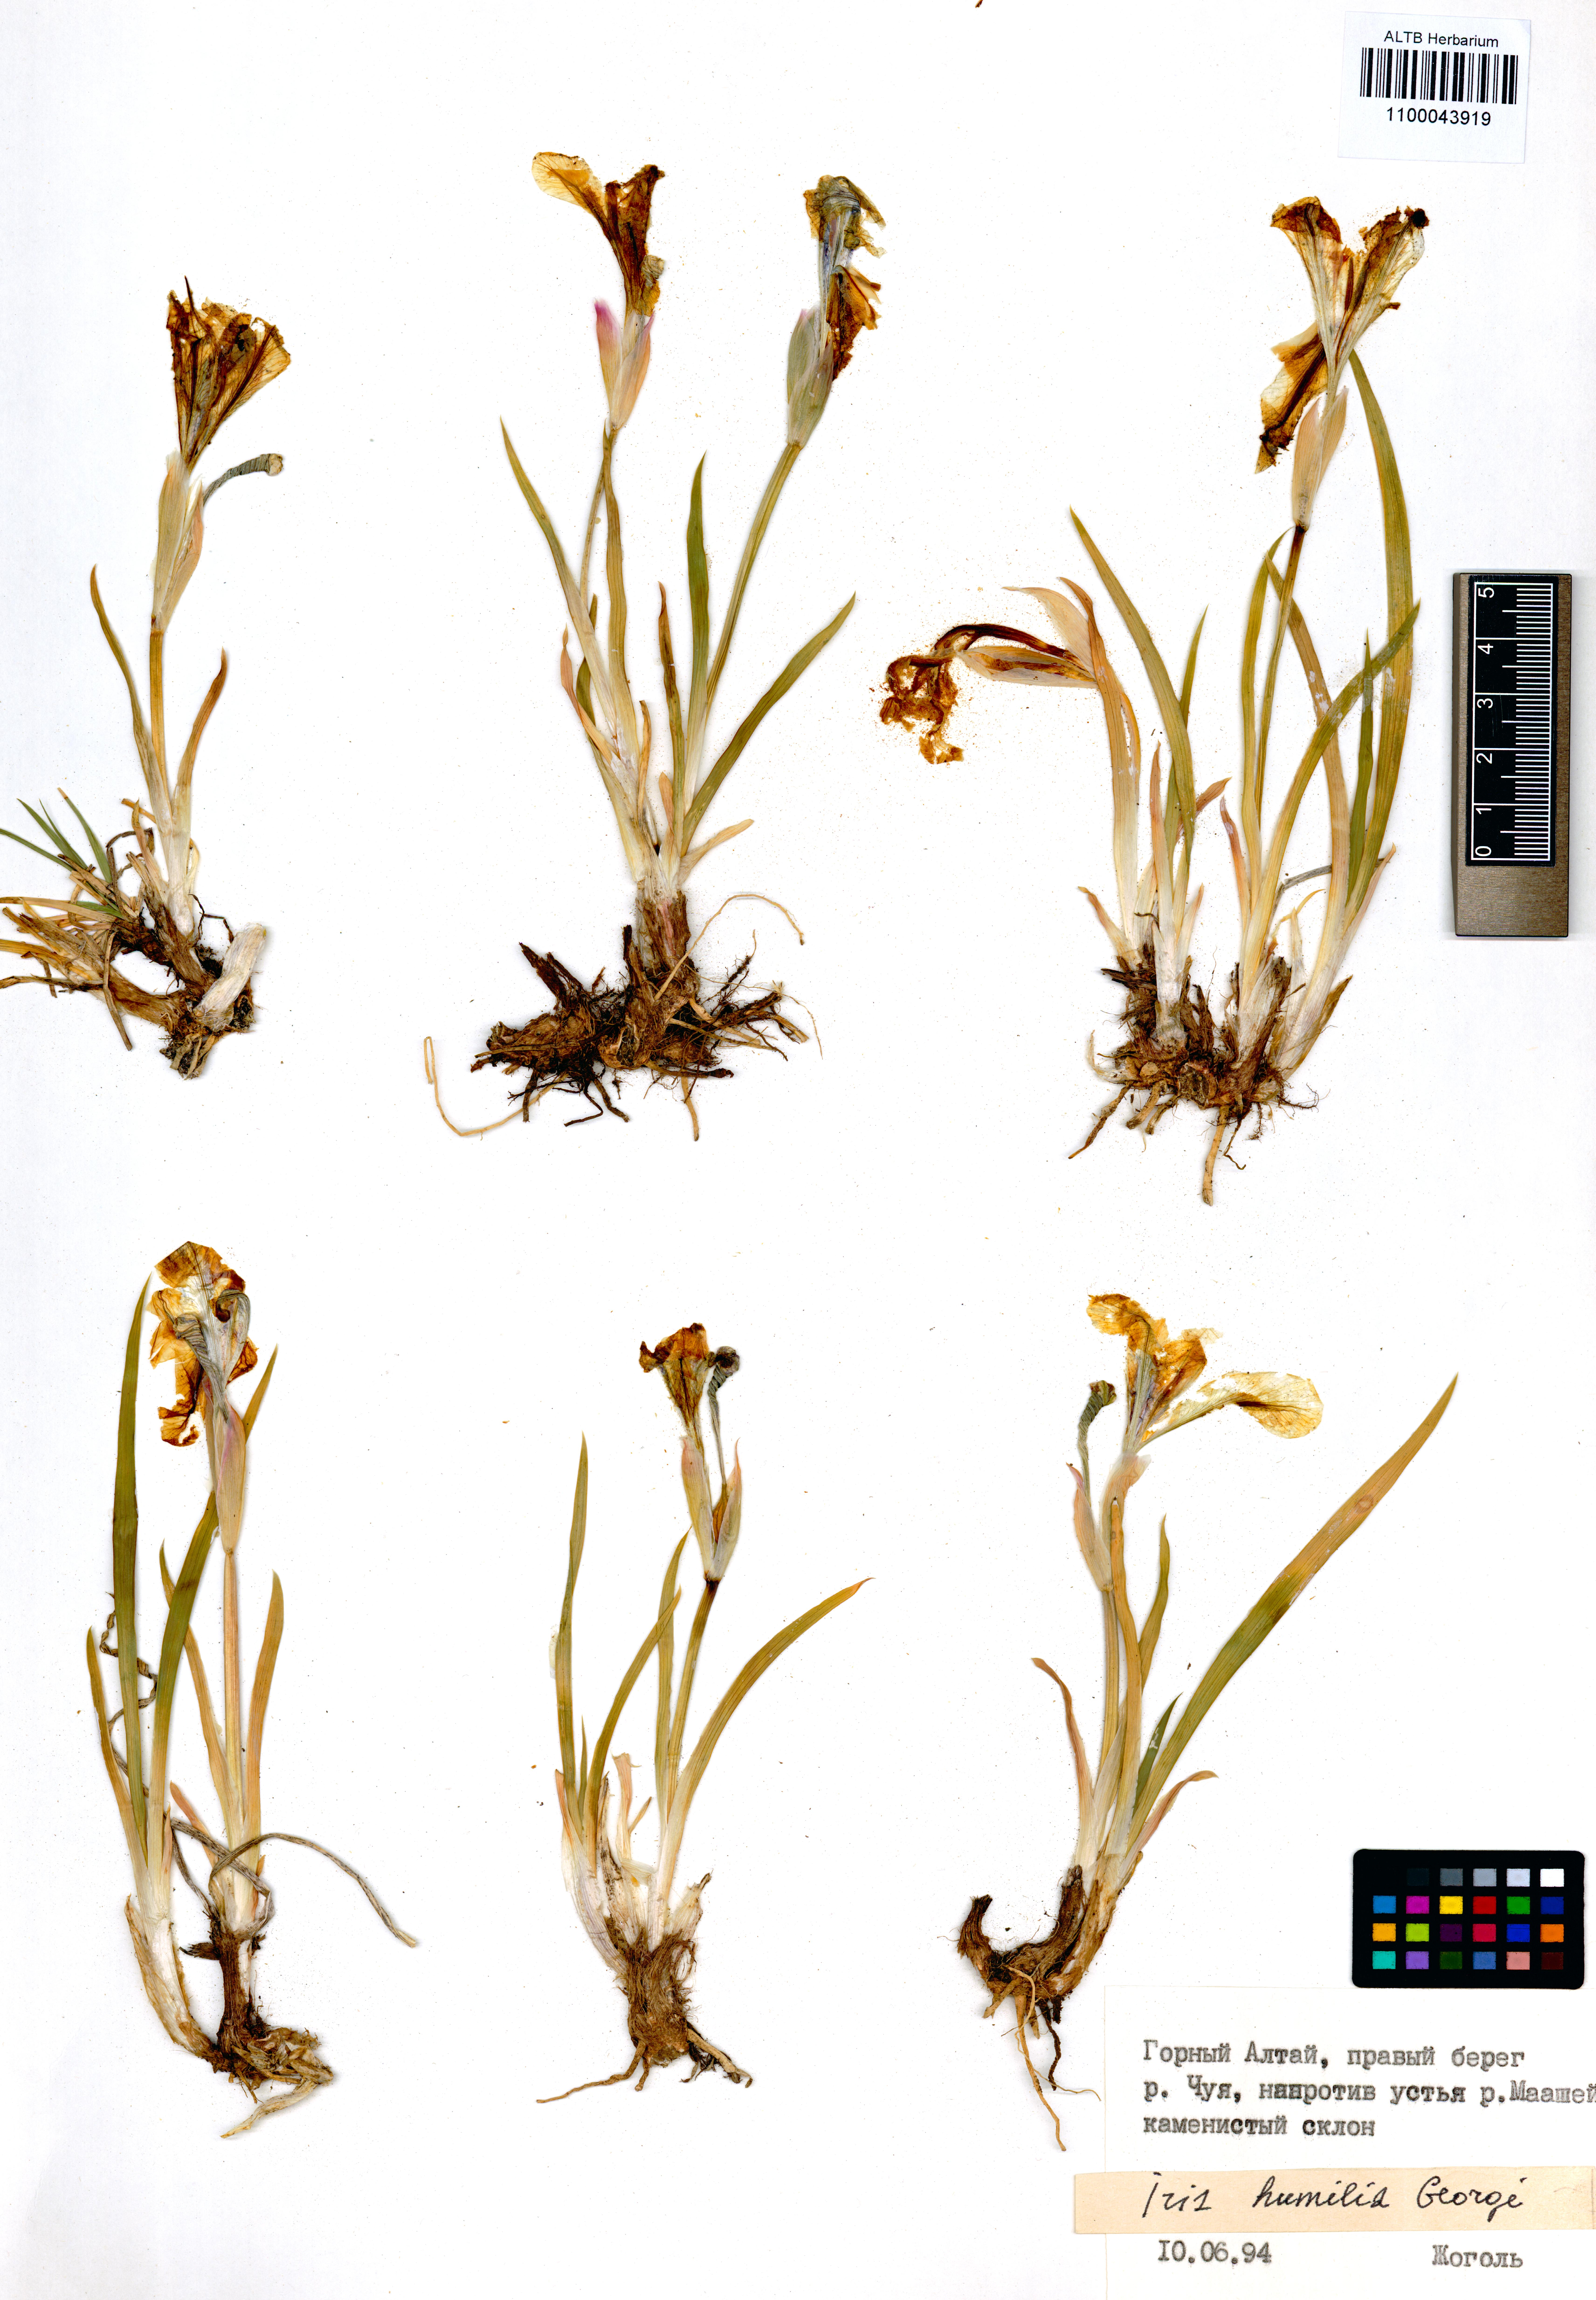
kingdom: Plantae
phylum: Tracheophyta
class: Liliopsida
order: Asparagales
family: Iridaceae
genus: Iris
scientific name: Iris humilis
